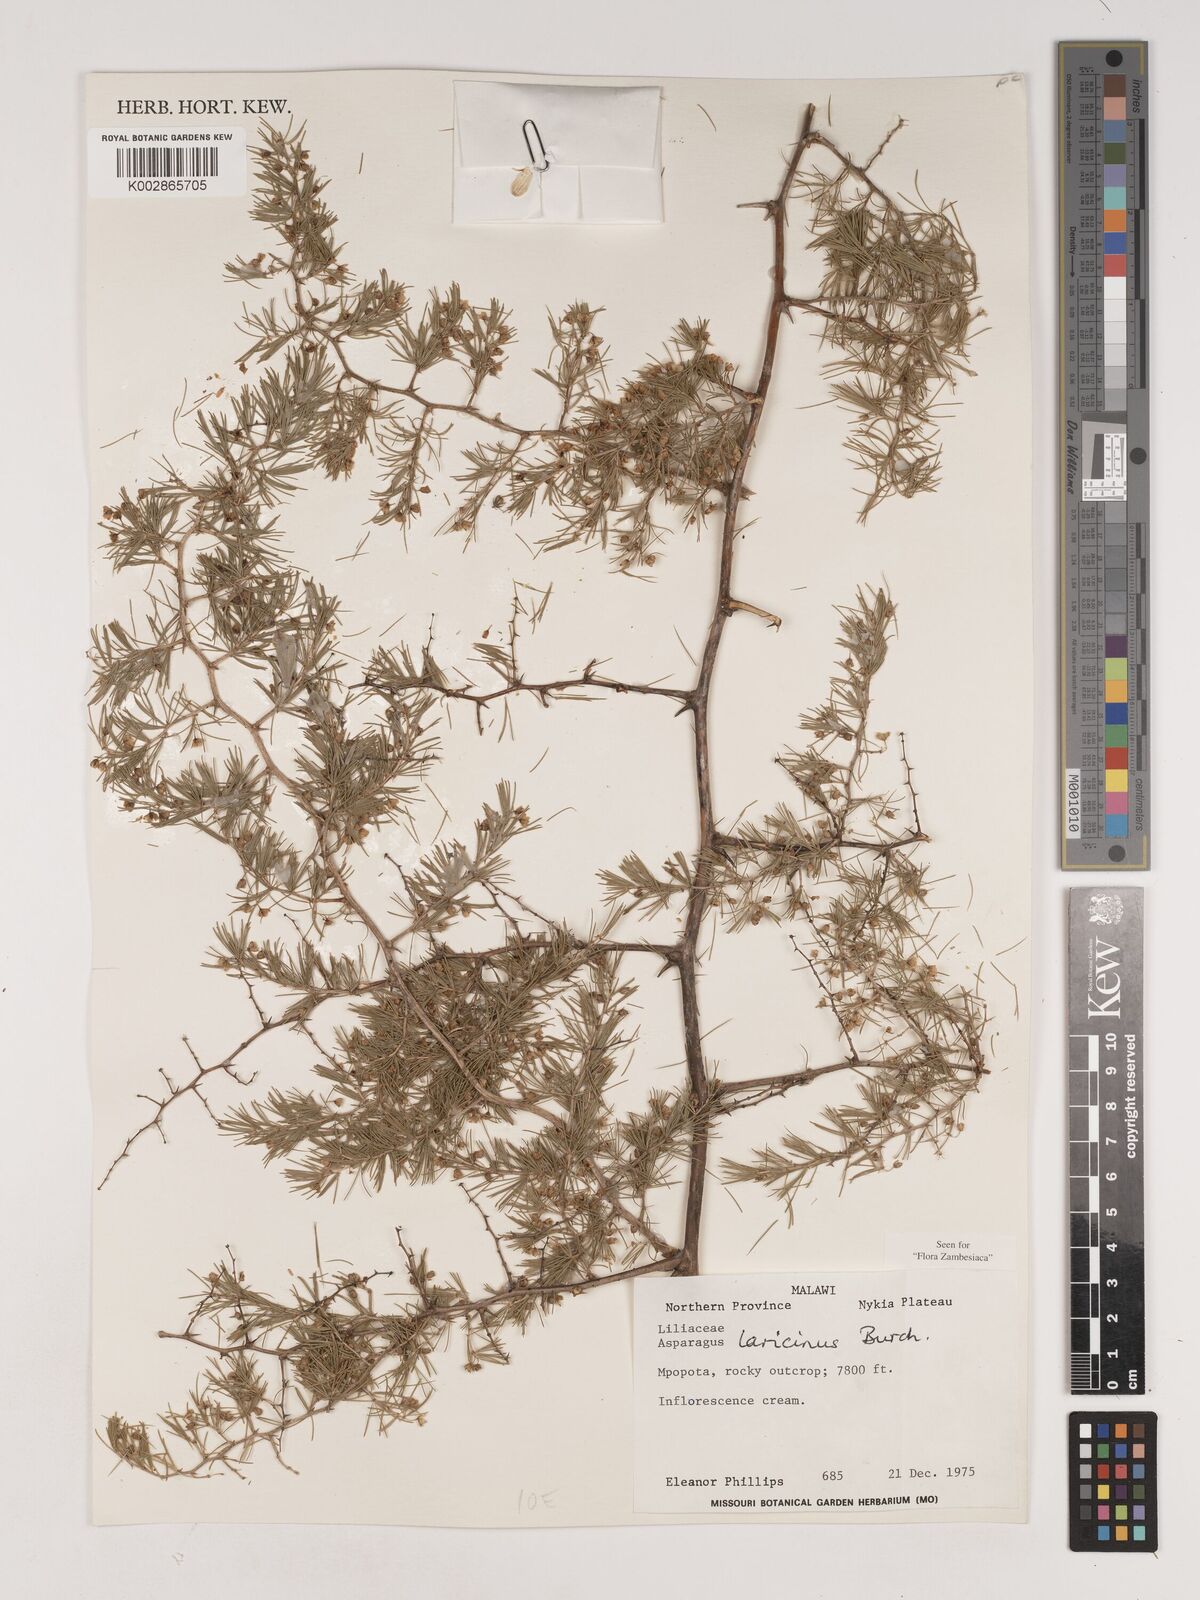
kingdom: Plantae
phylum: Tracheophyta
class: Liliopsida
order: Asparagales
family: Asparagaceae
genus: Asparagus
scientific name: Asparagus laricinus
